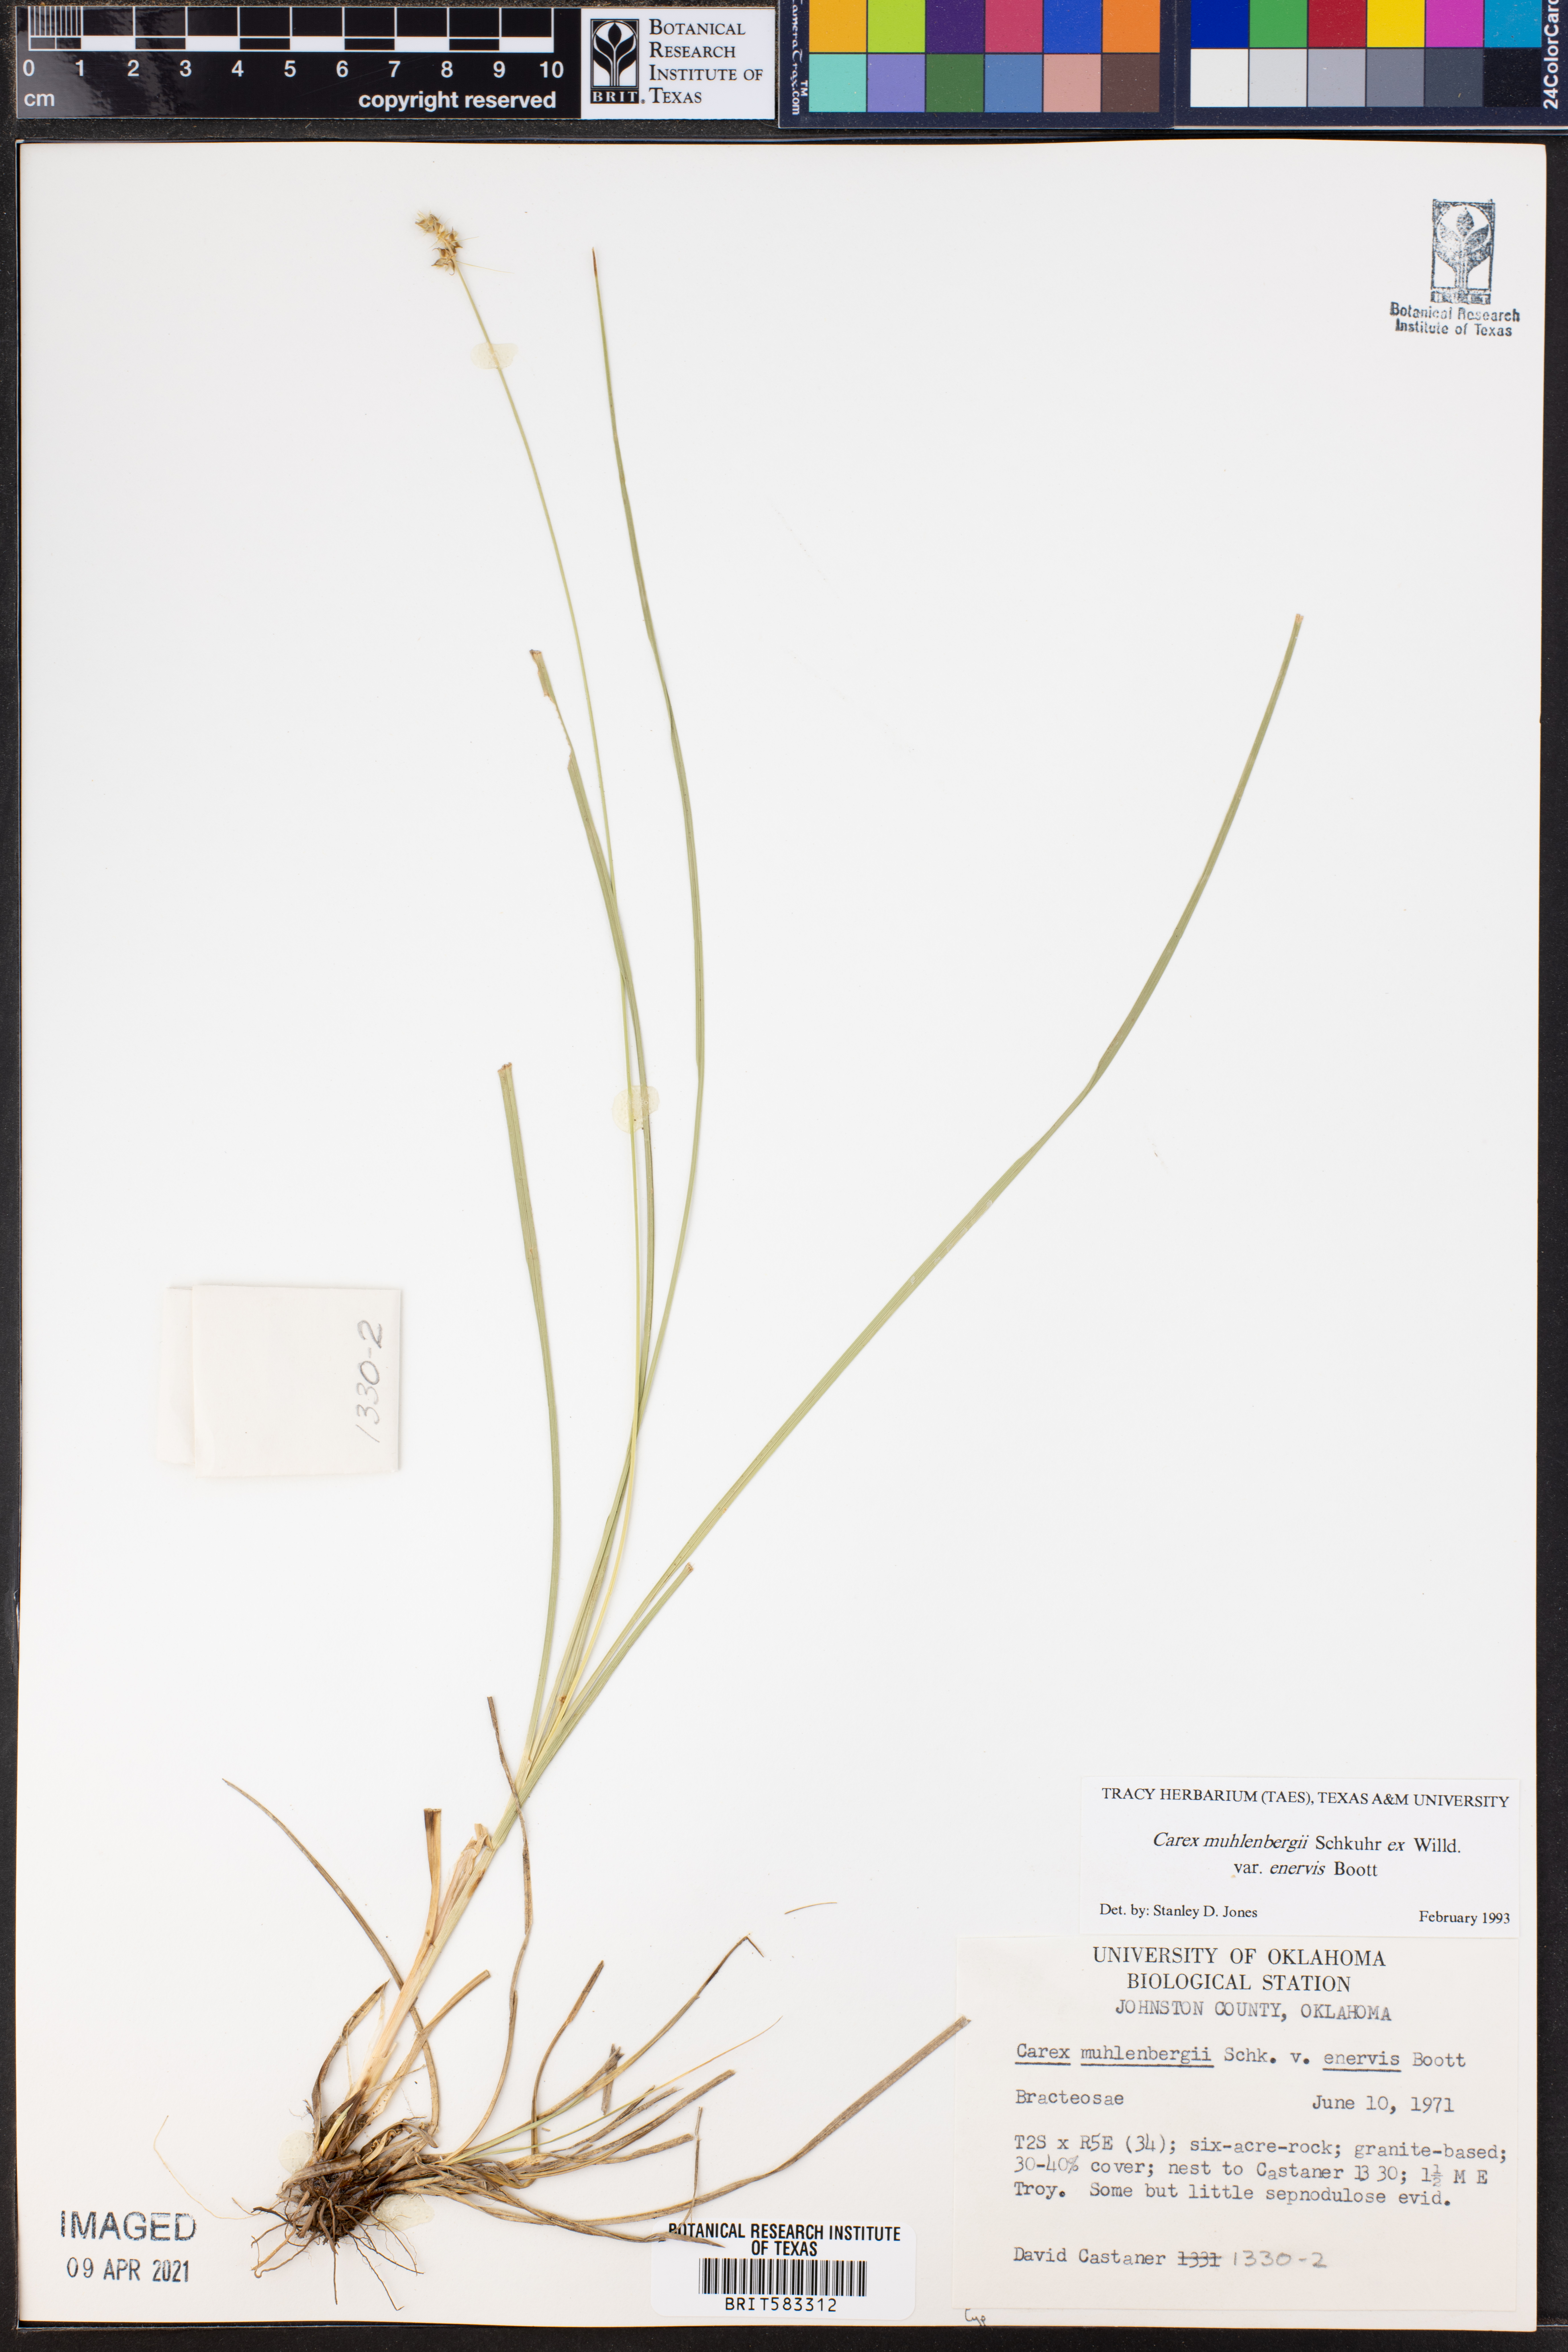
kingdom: Plantae
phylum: Tracheophyta
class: Liliopsida
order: Poales
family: Cyperaceae
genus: Carex
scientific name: Carex vulpinoidea
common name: American fox-sedge
